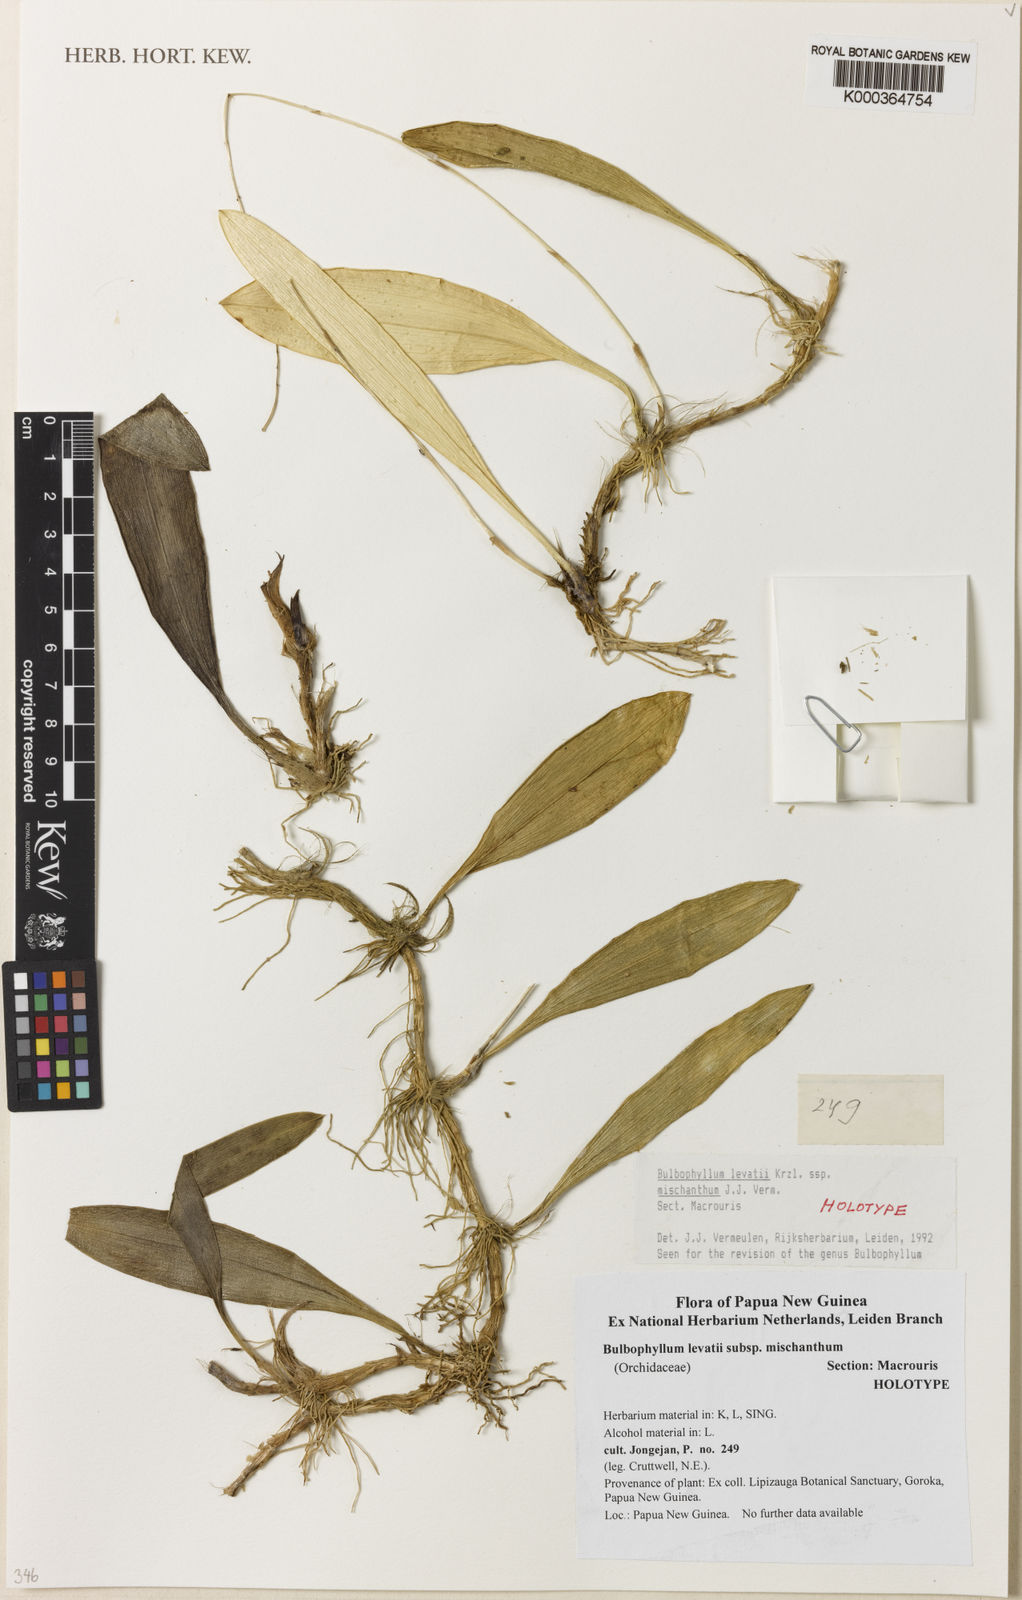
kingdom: Plantae
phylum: Tracheophyta
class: Liliopsida
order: Asparagales
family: Orchidaceae
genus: Bulbophyllum
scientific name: Bulbophyllum levatii
